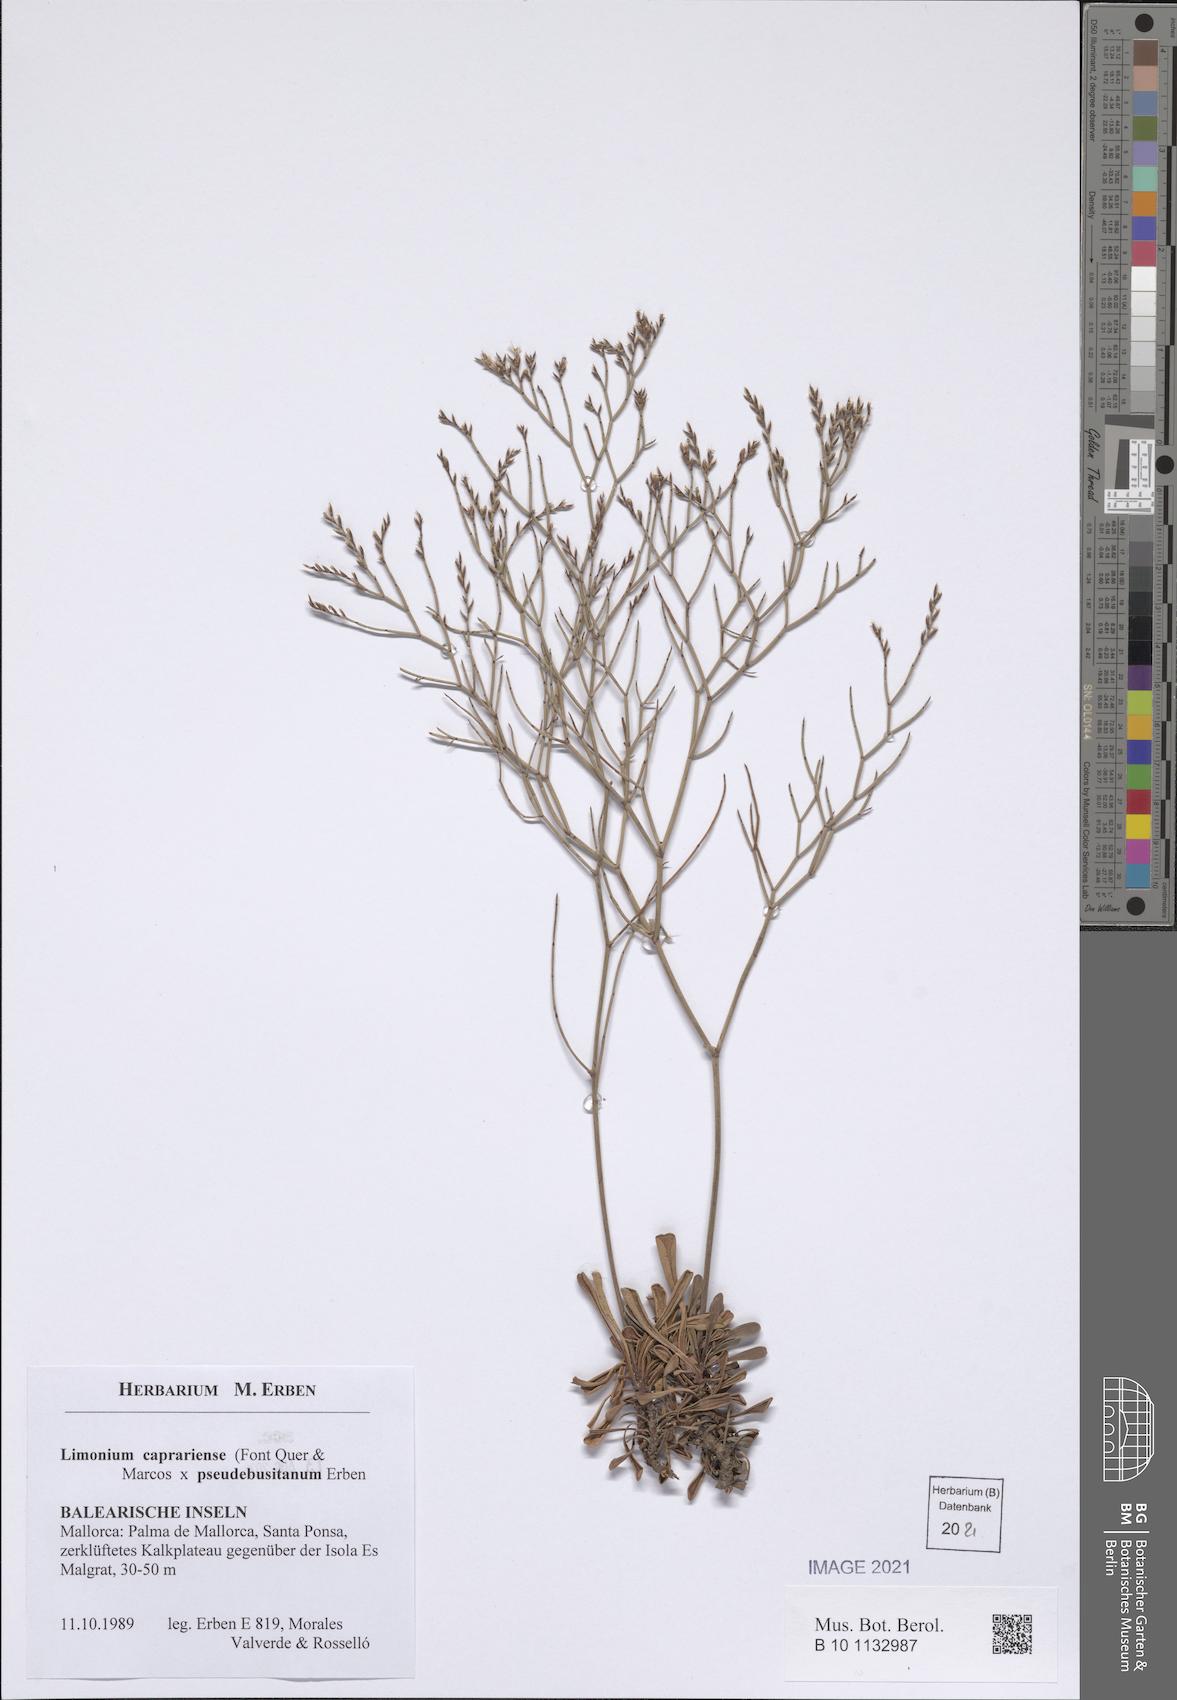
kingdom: Plantae
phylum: Tracheophyta
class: Magnoliopsida
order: Caryophyllales
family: Plumbaginaceae
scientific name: Plumbaginaceae
